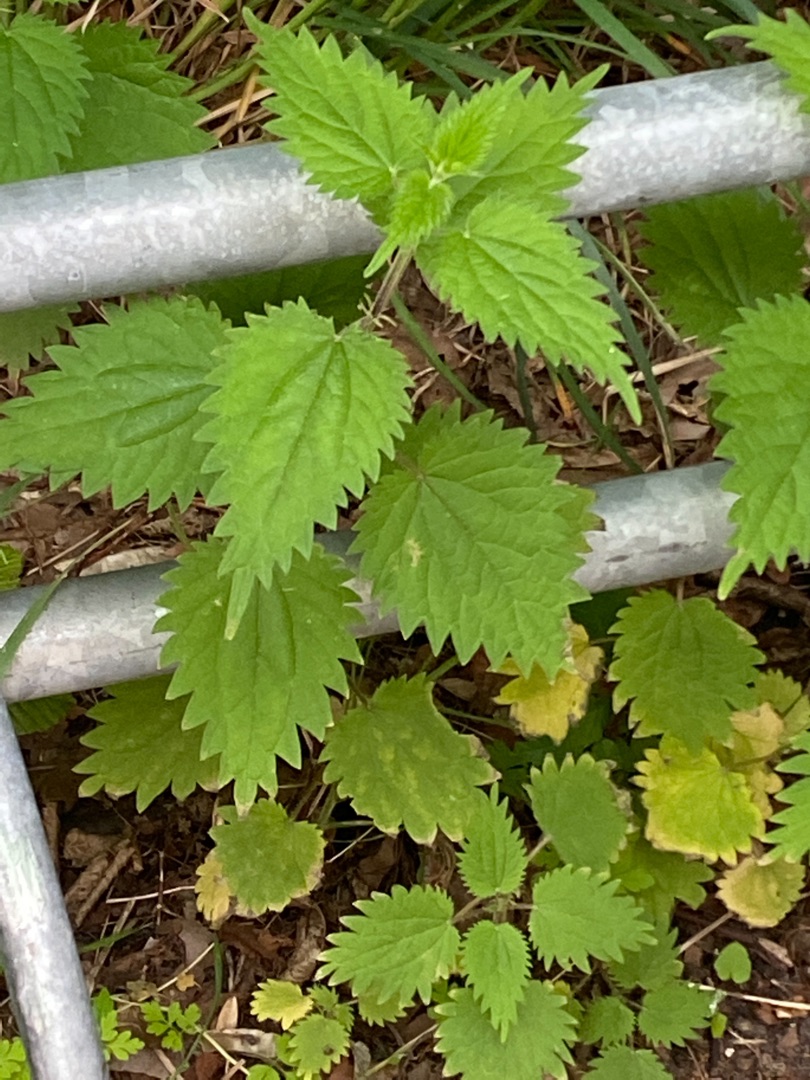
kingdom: Plantae
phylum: Tracheophyta
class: Magnoliopsida
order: Rosales
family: Urticaceae
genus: Urtica
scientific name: Urtica dioica
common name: Stor nælde
